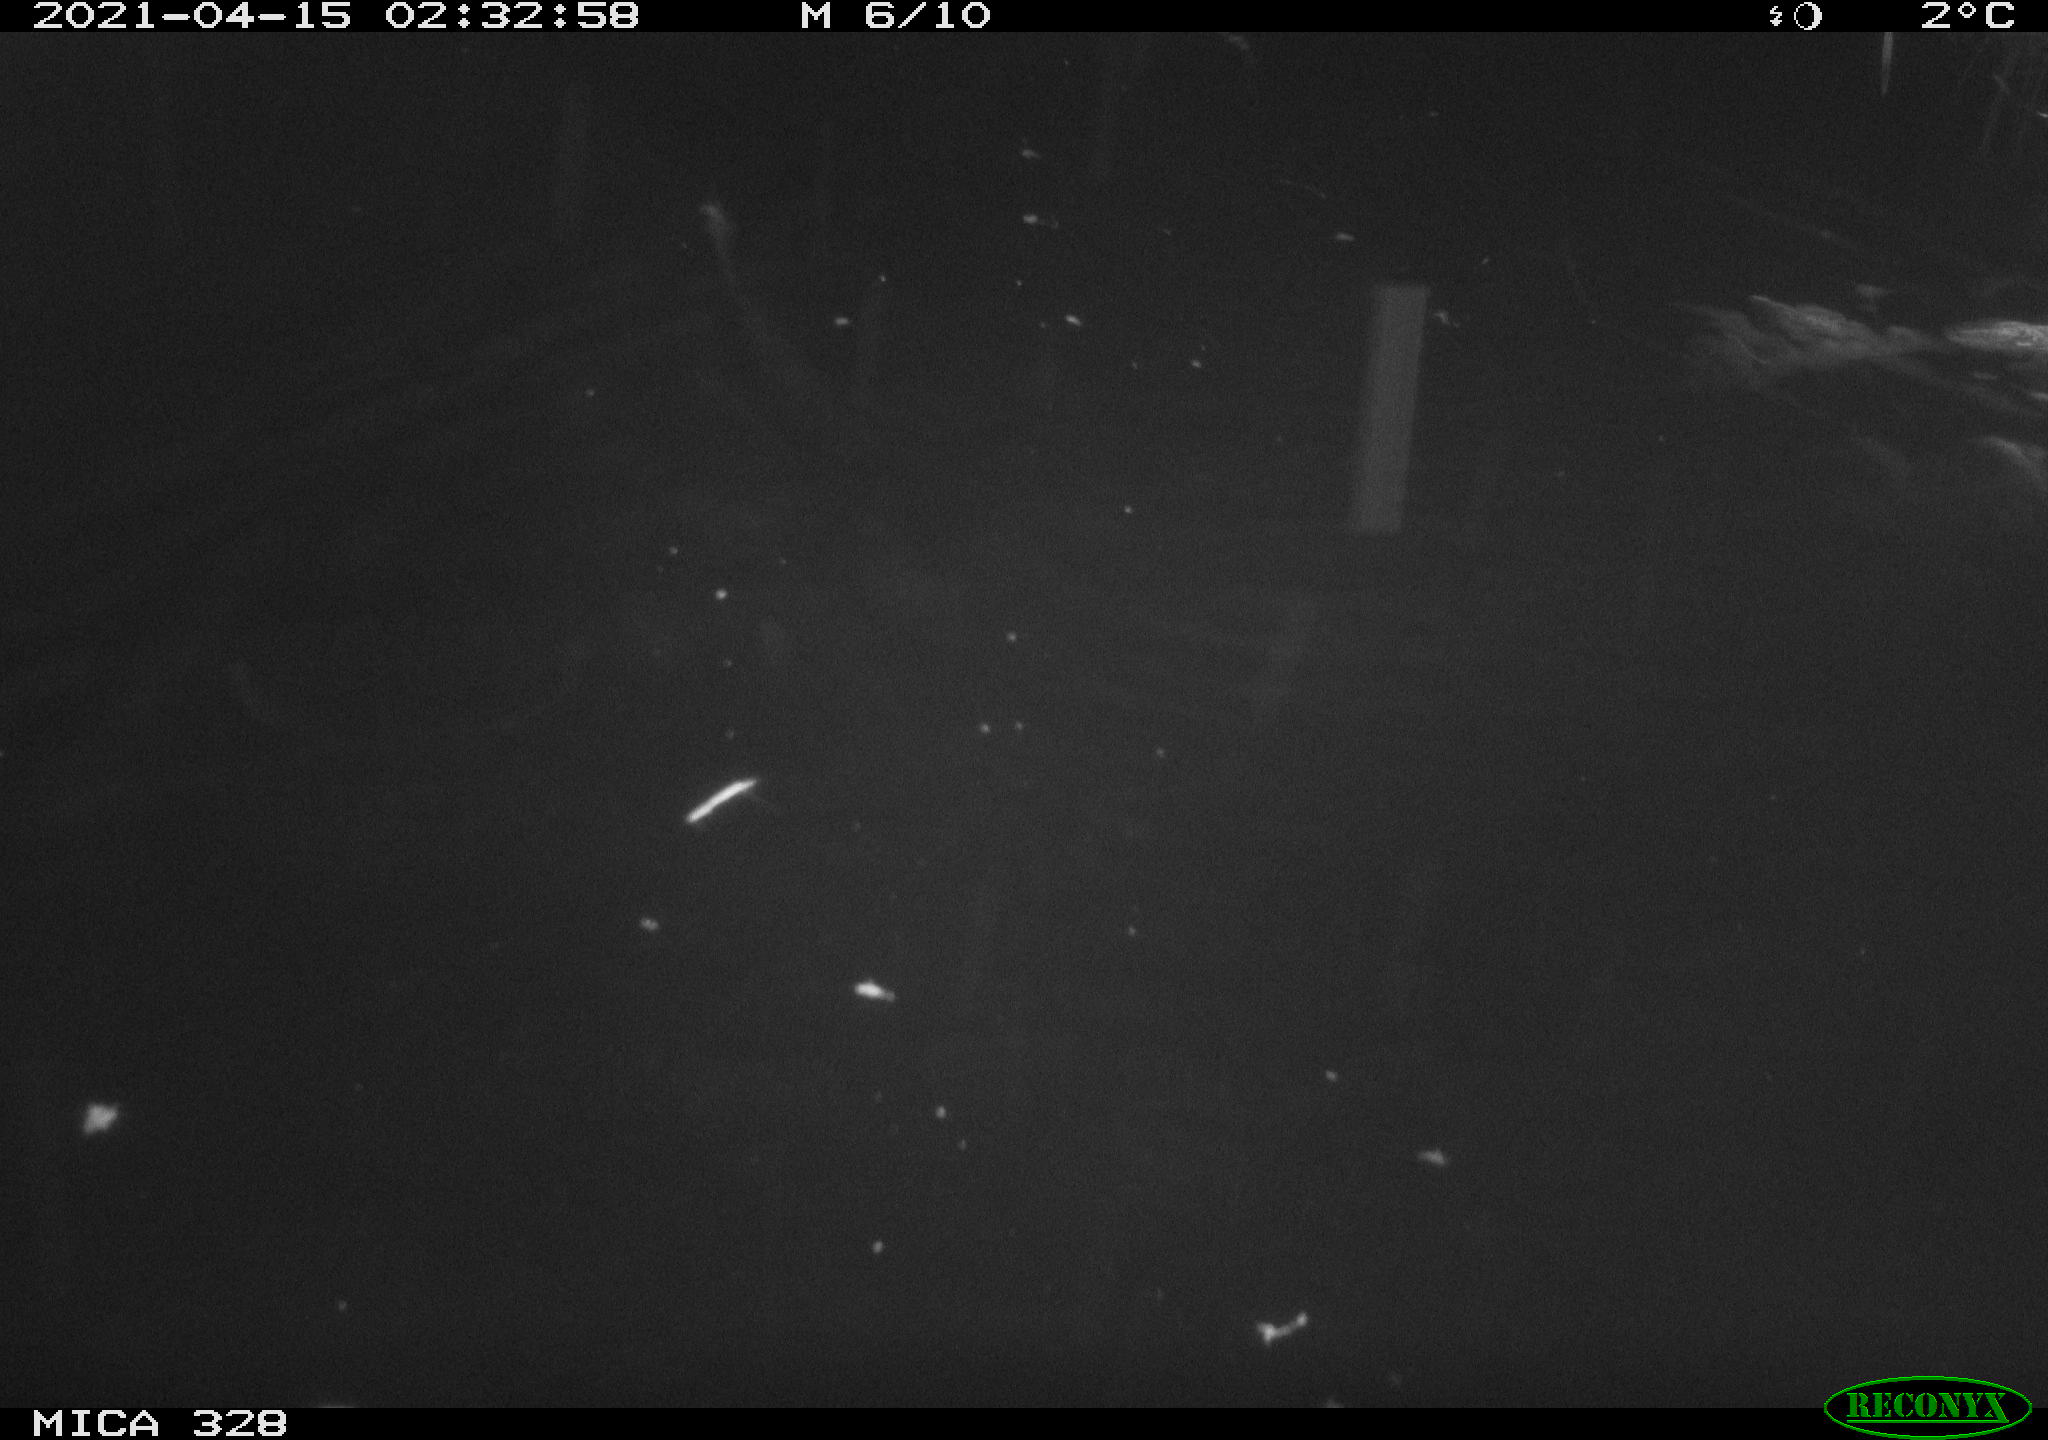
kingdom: Animalia
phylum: Chordata
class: Mammalia
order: Rodentia
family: Cricetidae
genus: Ondatra
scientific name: Ondatra zibethicus
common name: Muskrat
